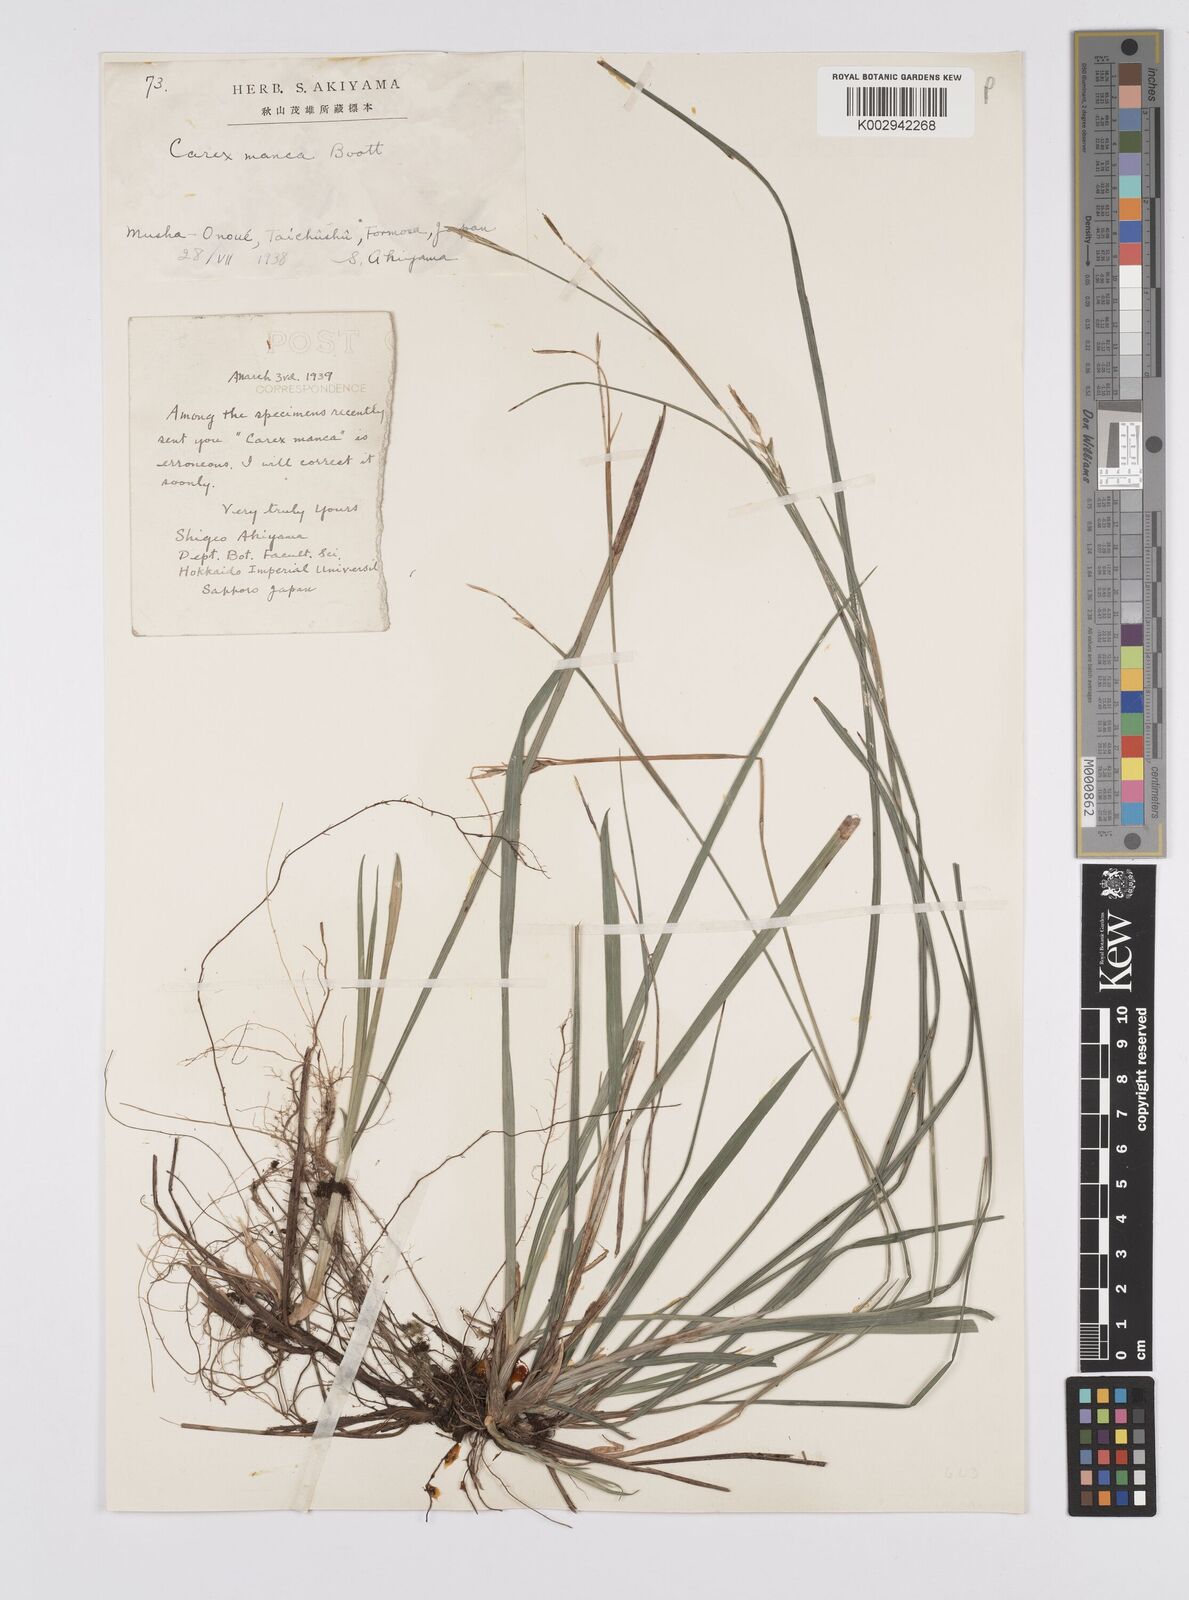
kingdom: Plantae
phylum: Tracheophyta
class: Liliopsida
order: Poales
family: Cyperaceae
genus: Carex
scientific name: Carex manca
